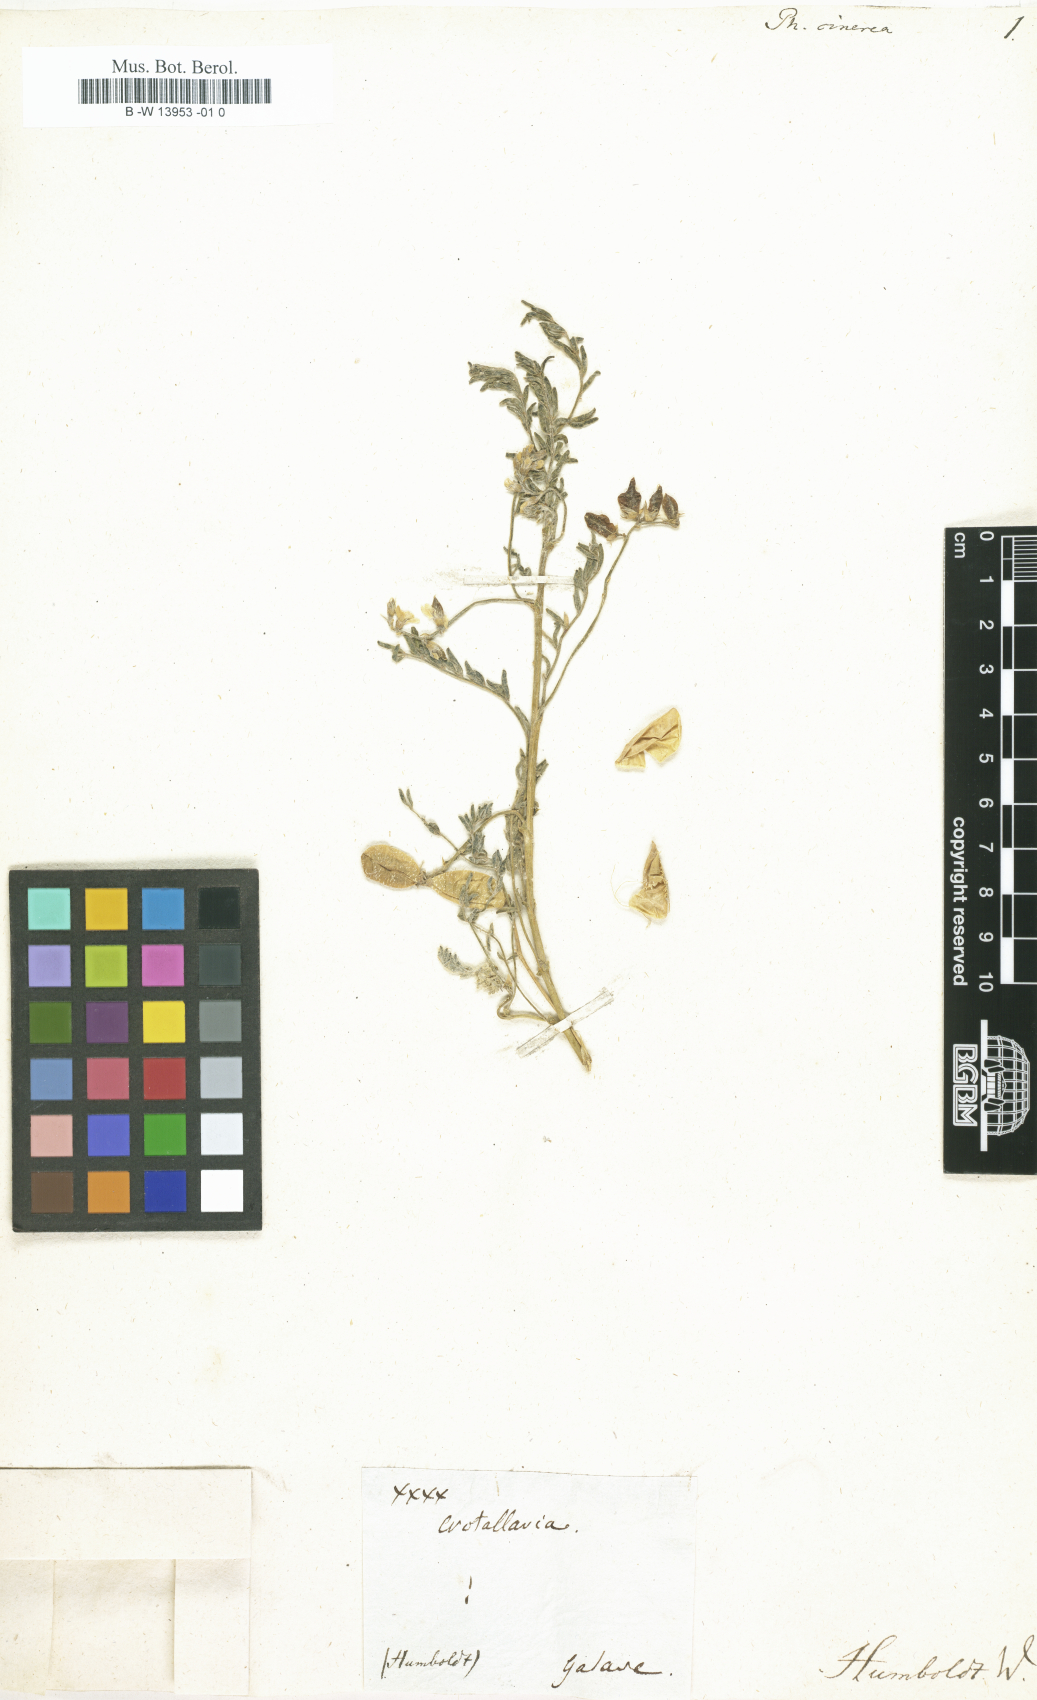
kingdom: Plantae
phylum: Tracheophyta
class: Magnoliopsida
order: Fabales
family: Fabaceae
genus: Astragalus
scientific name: Astragalus
